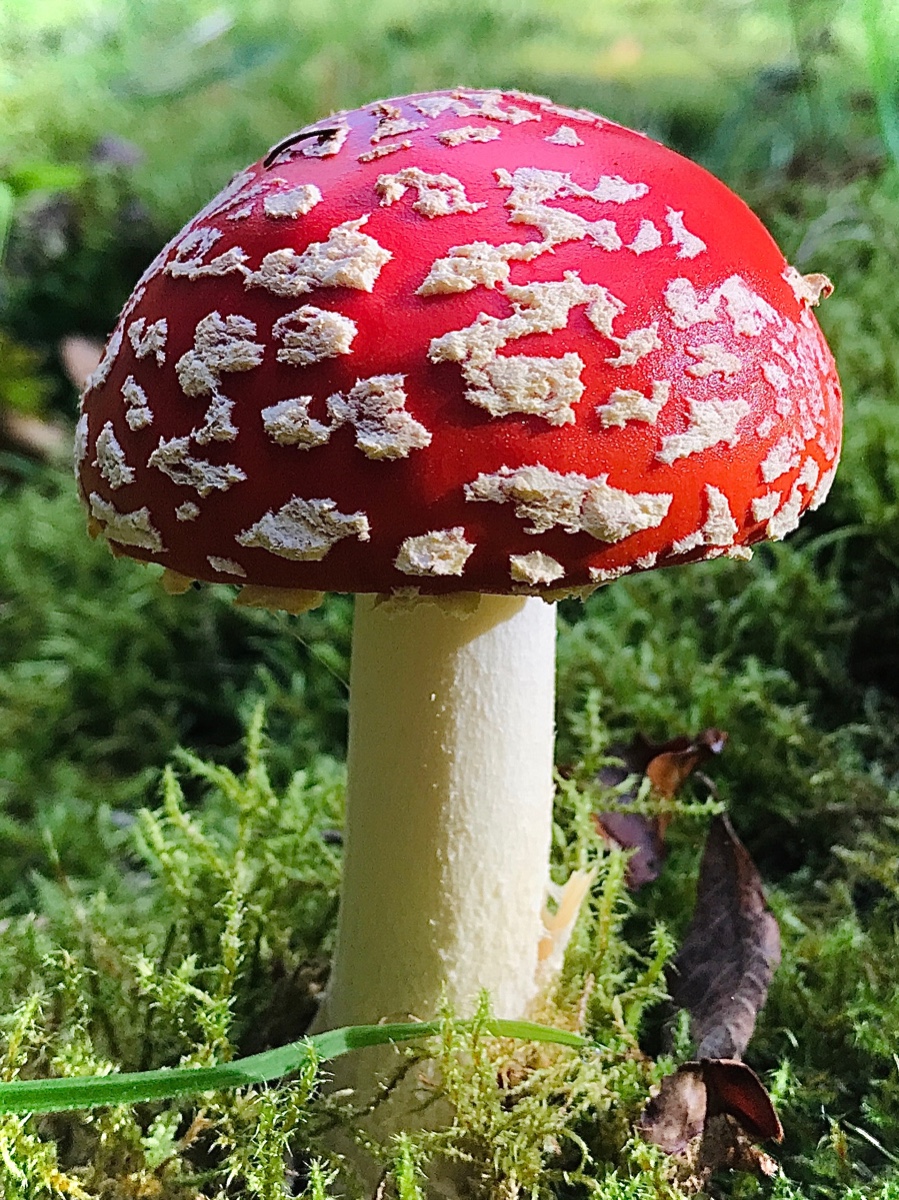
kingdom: Fungi
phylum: Basidiomycota
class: Agaricomycetes
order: Agaricales
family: Amanitaceae
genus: Amanita
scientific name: Amanita muscaria
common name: rød fluesvamp
